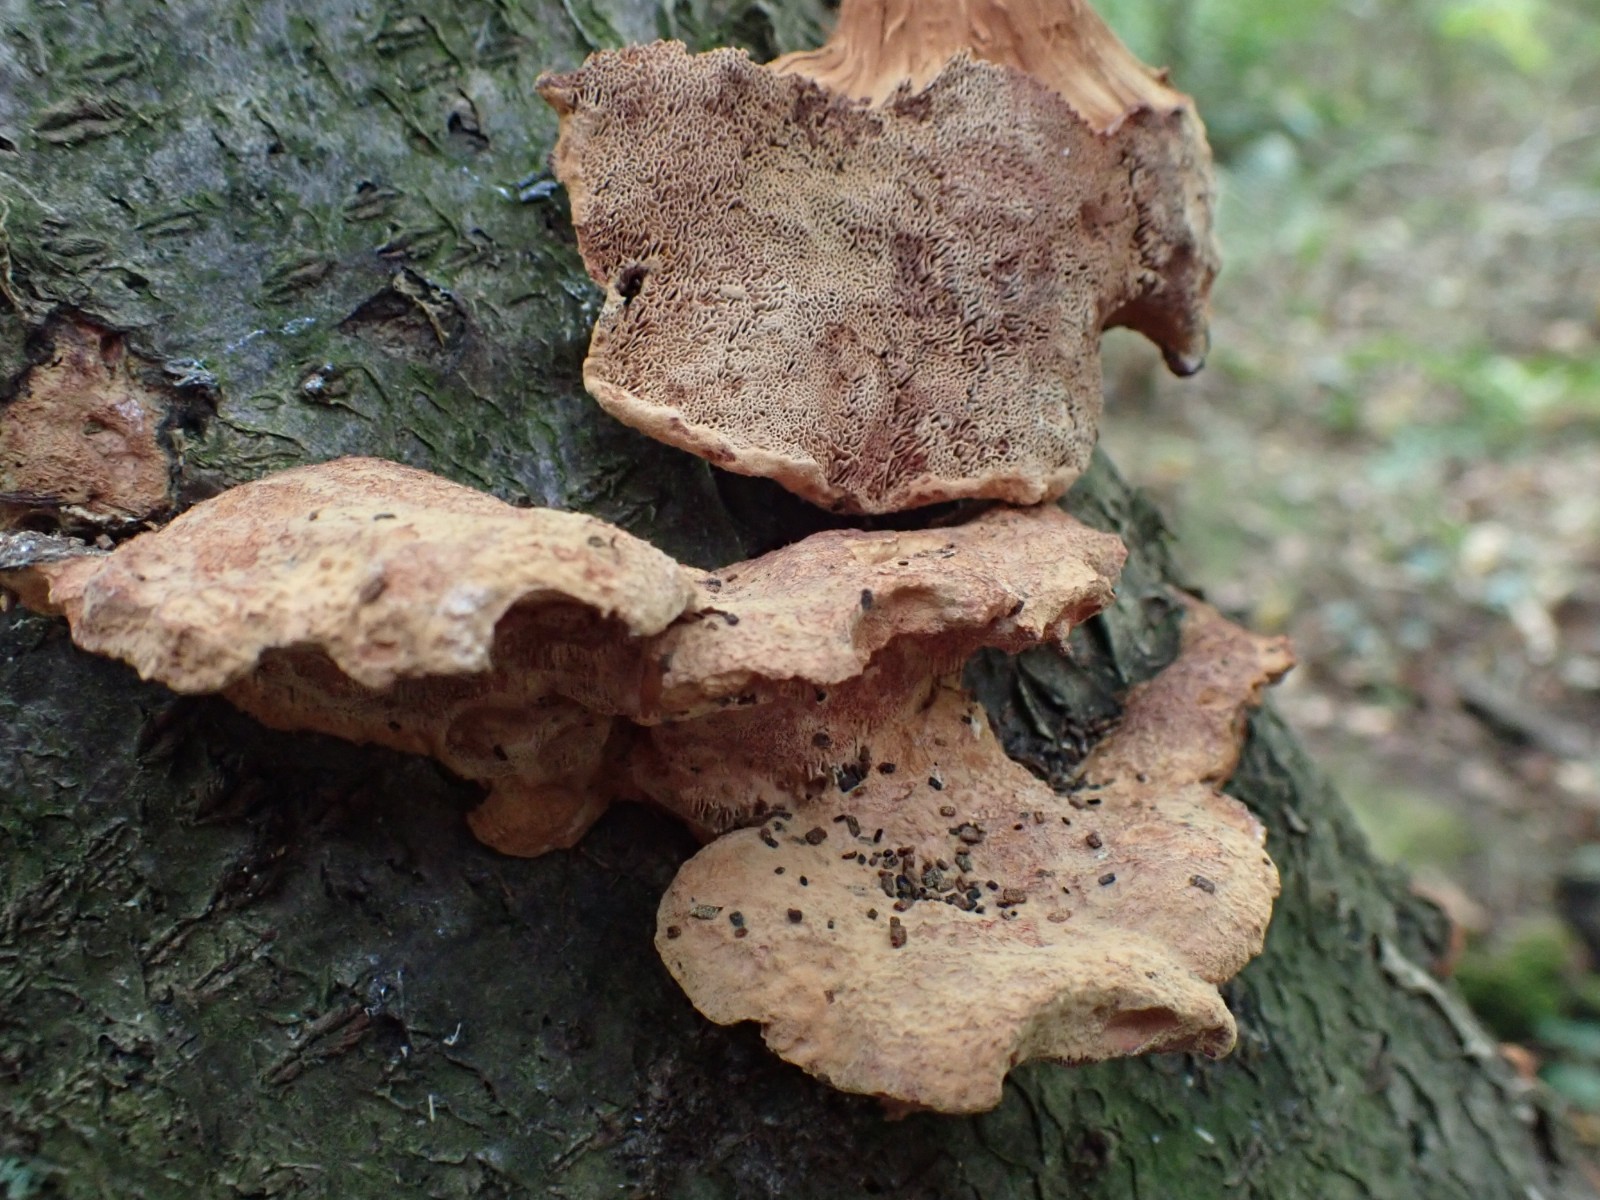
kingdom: Fungi
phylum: Basidiomycota
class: Agaricomycetes
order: Polyporales
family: Phanerochaetaceae
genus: Hapalopilus
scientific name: Hapalopilus rutilans
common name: rødlig okkerporesvamp
